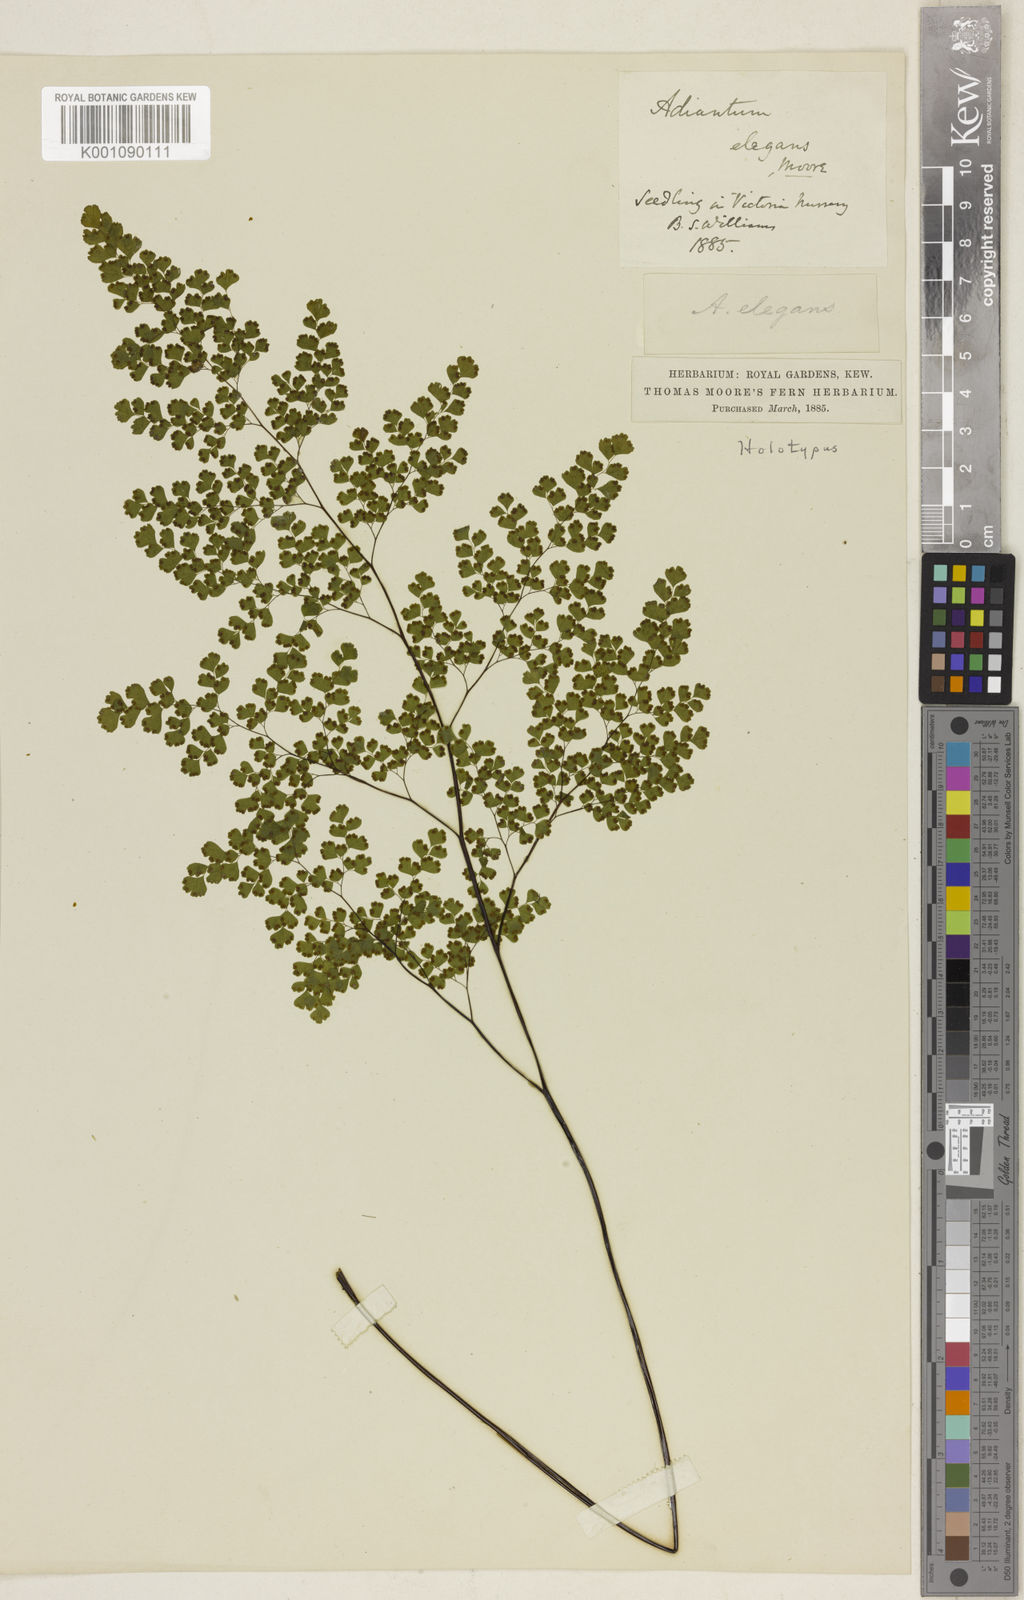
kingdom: Plantae
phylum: Tracheophyta
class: Polypodiopsida
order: Polypodiales
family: Pteridaceae
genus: Adiantum
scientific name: Adiantum raddianum
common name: Delta maidenhair fern
